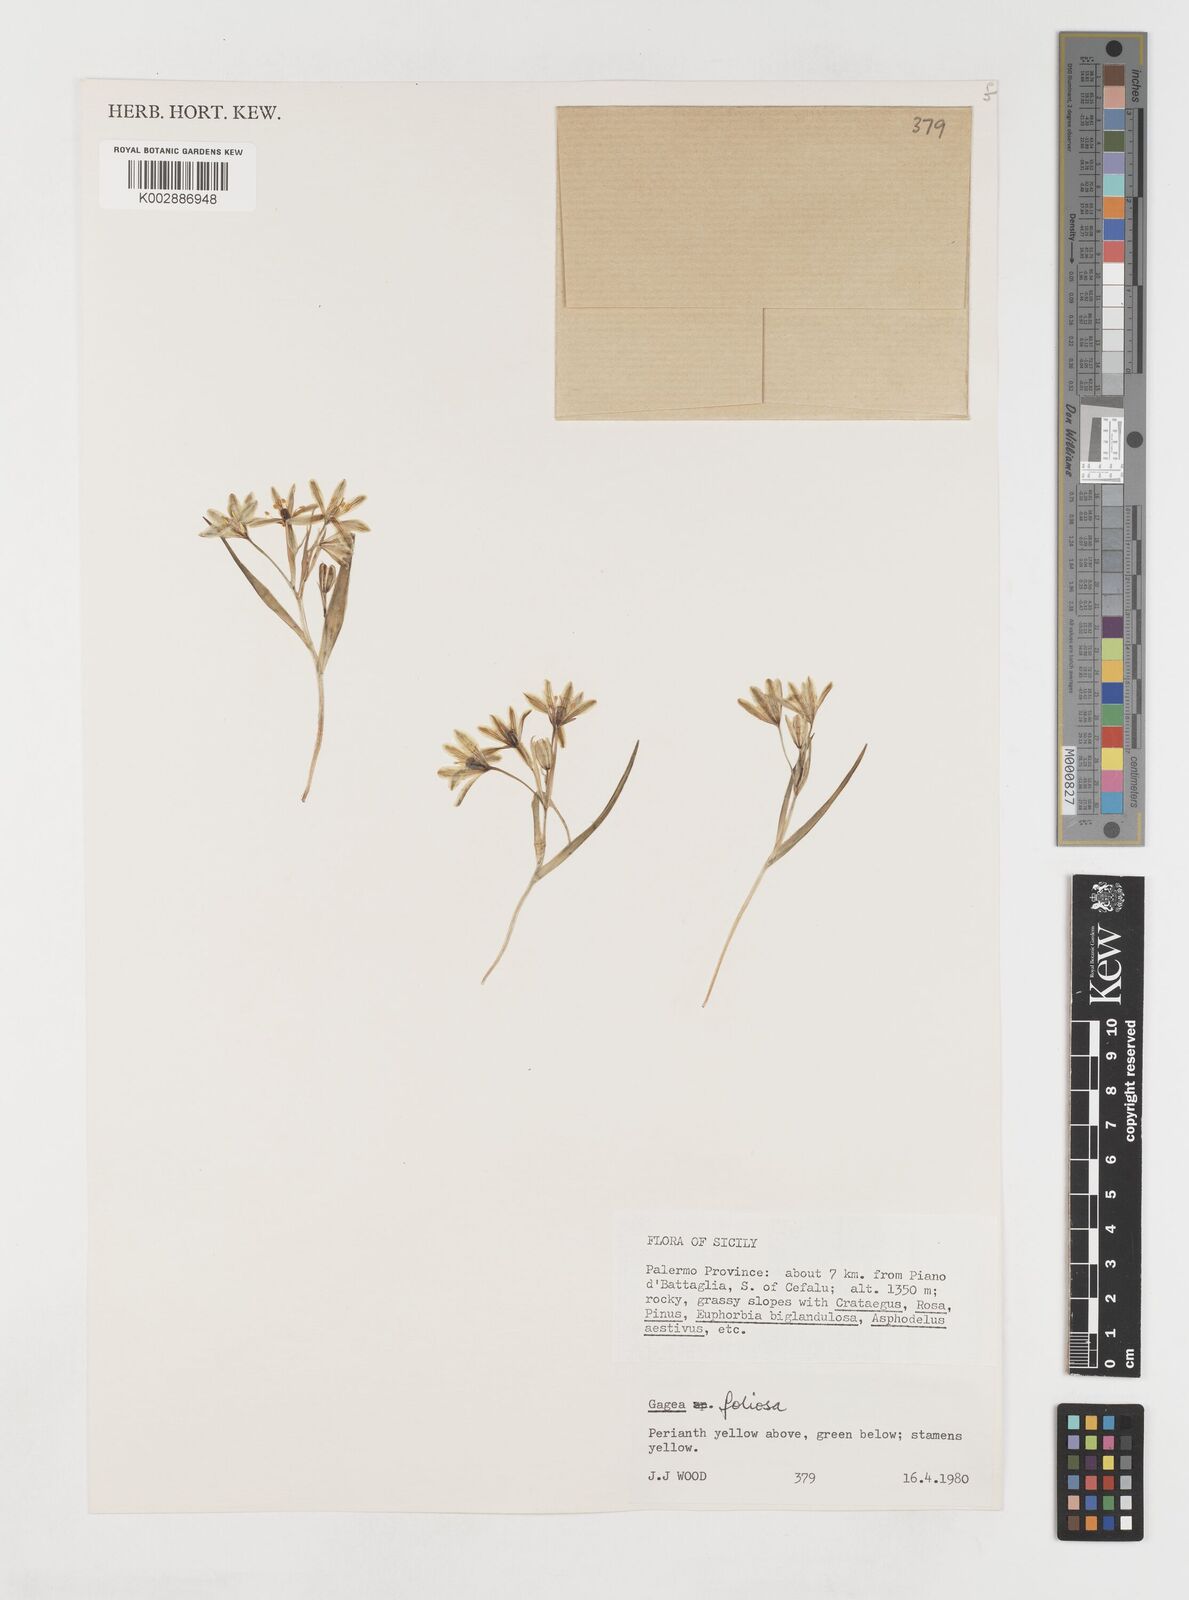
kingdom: Plantae
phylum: Tracheophyta
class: Liliopsida
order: Liliales
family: Liliaceae
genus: Gagea
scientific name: Gagea foliosa
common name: Leafy gagea
